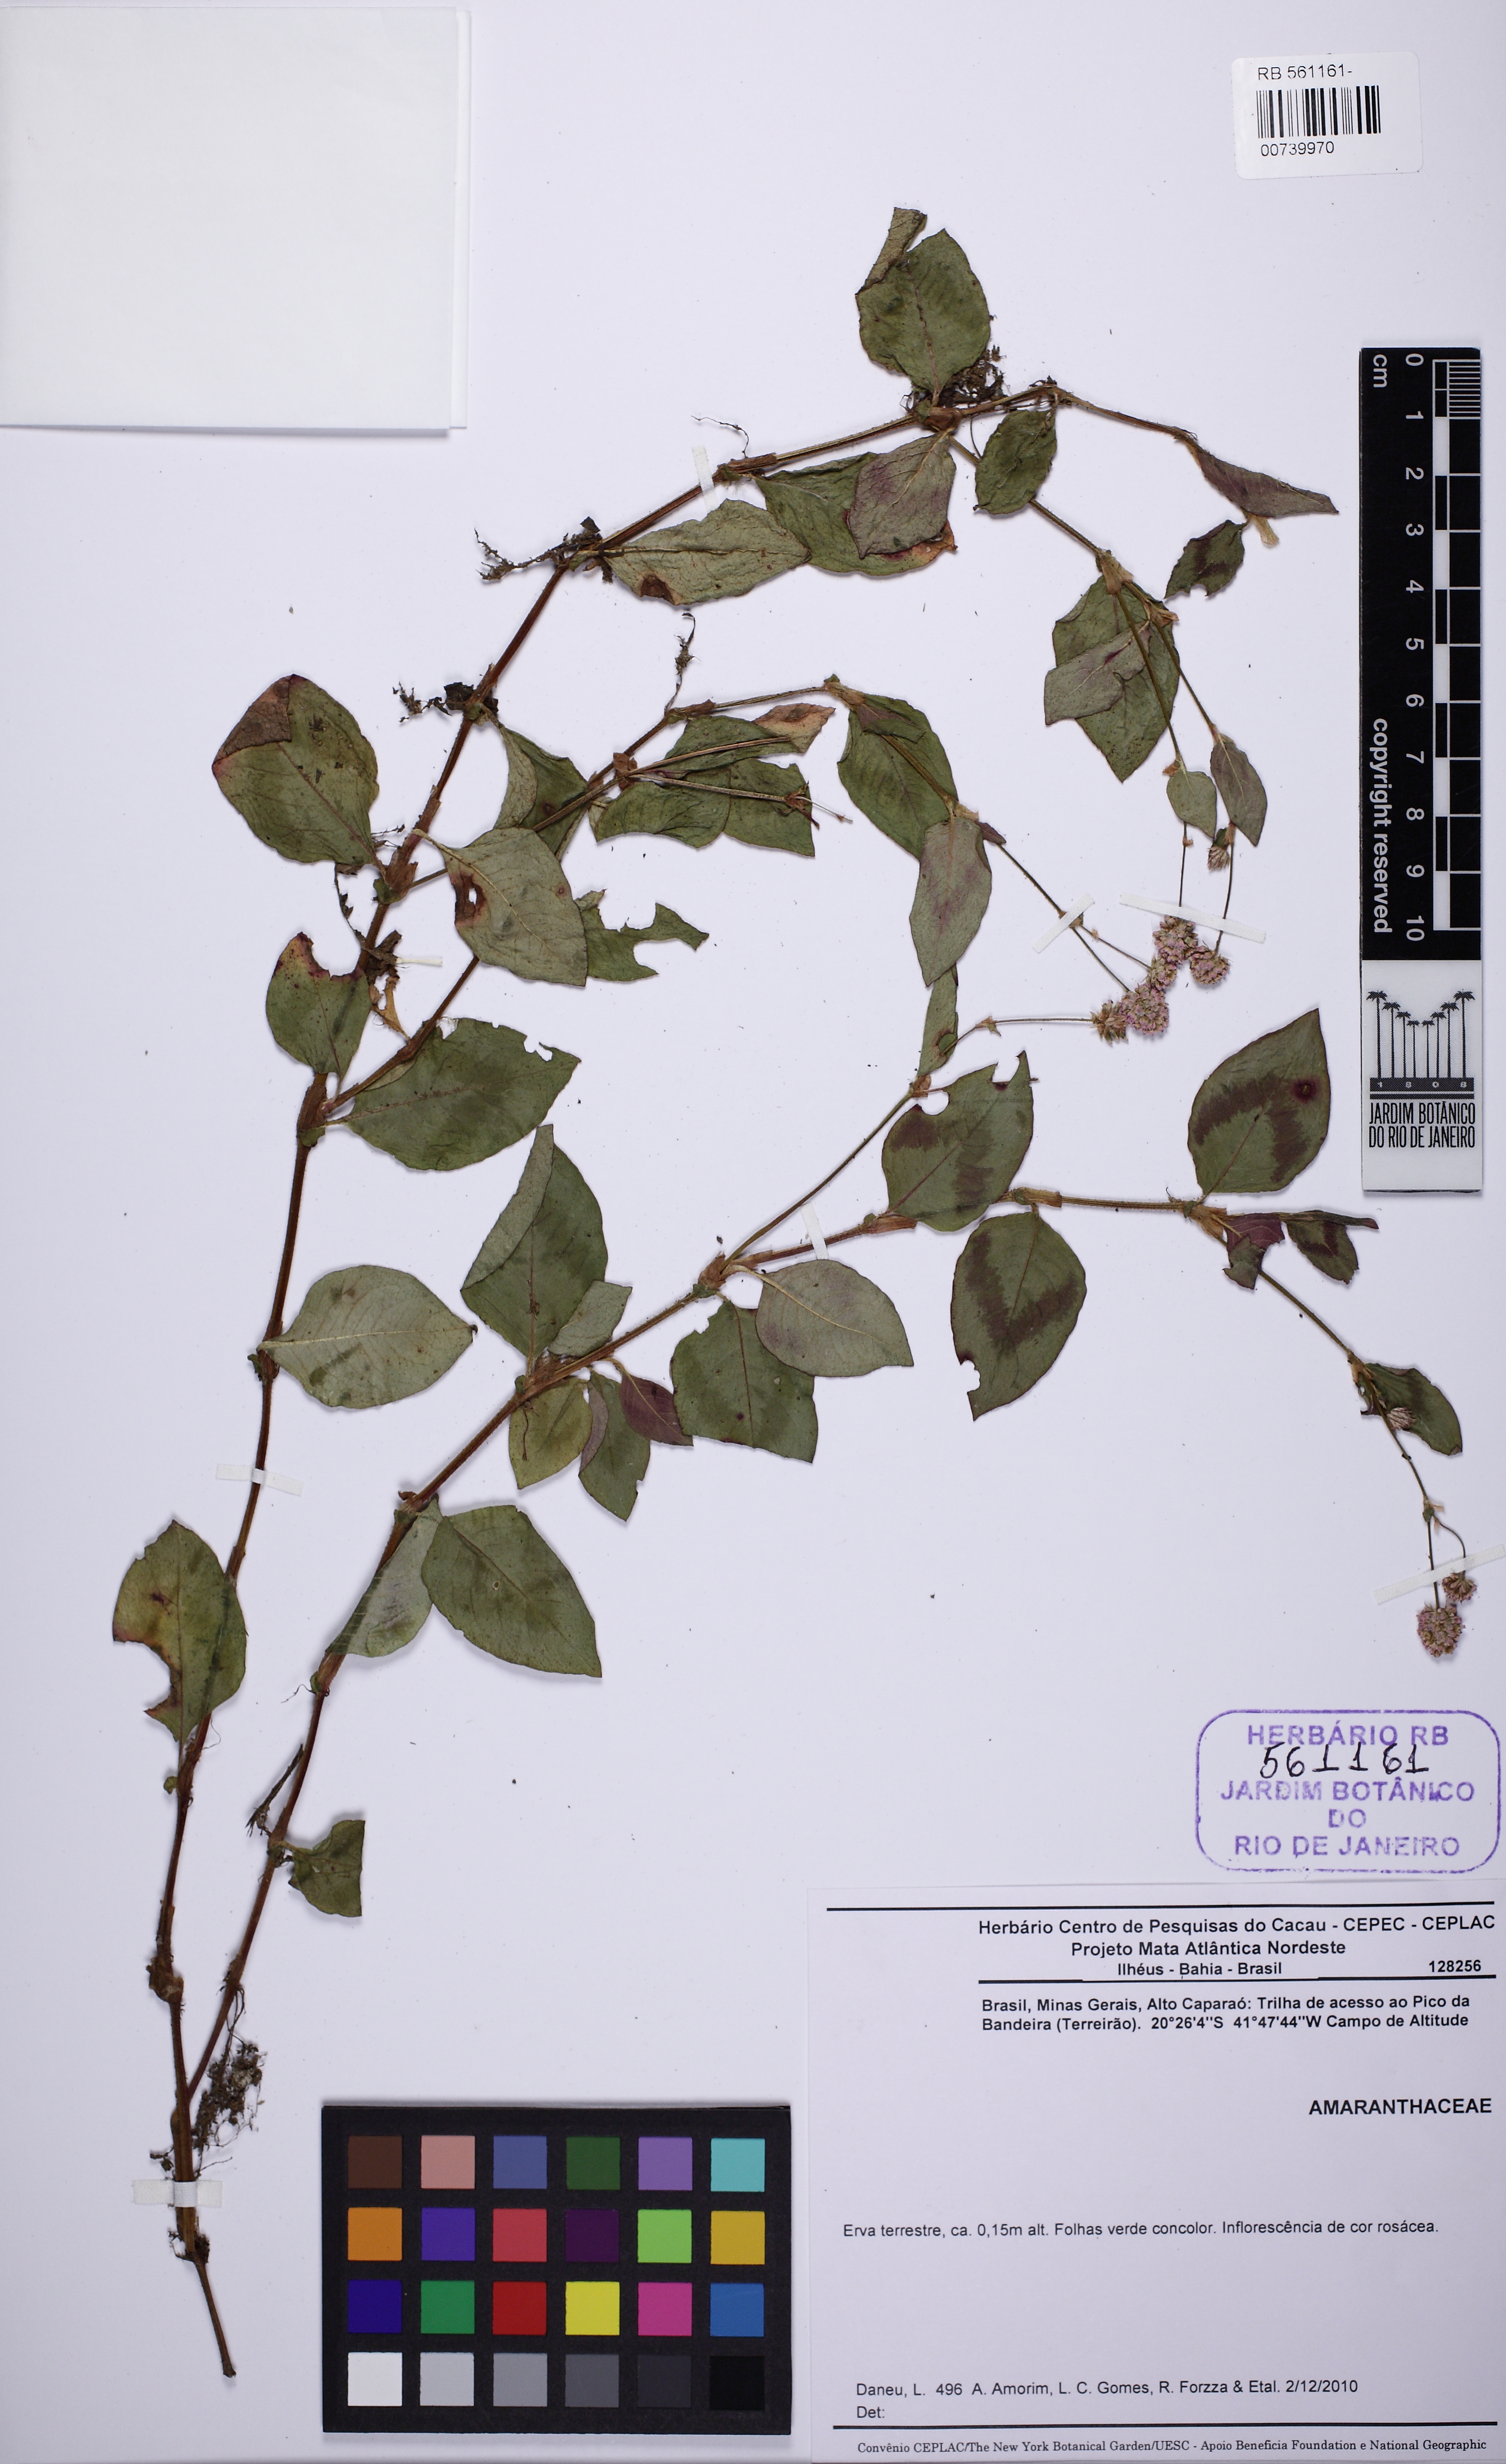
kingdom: Plantae
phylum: Tracheophyta
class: Magnoliopsida
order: Caryophyllales
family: Polygonaceae
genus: Polygonum
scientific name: Polygonum
